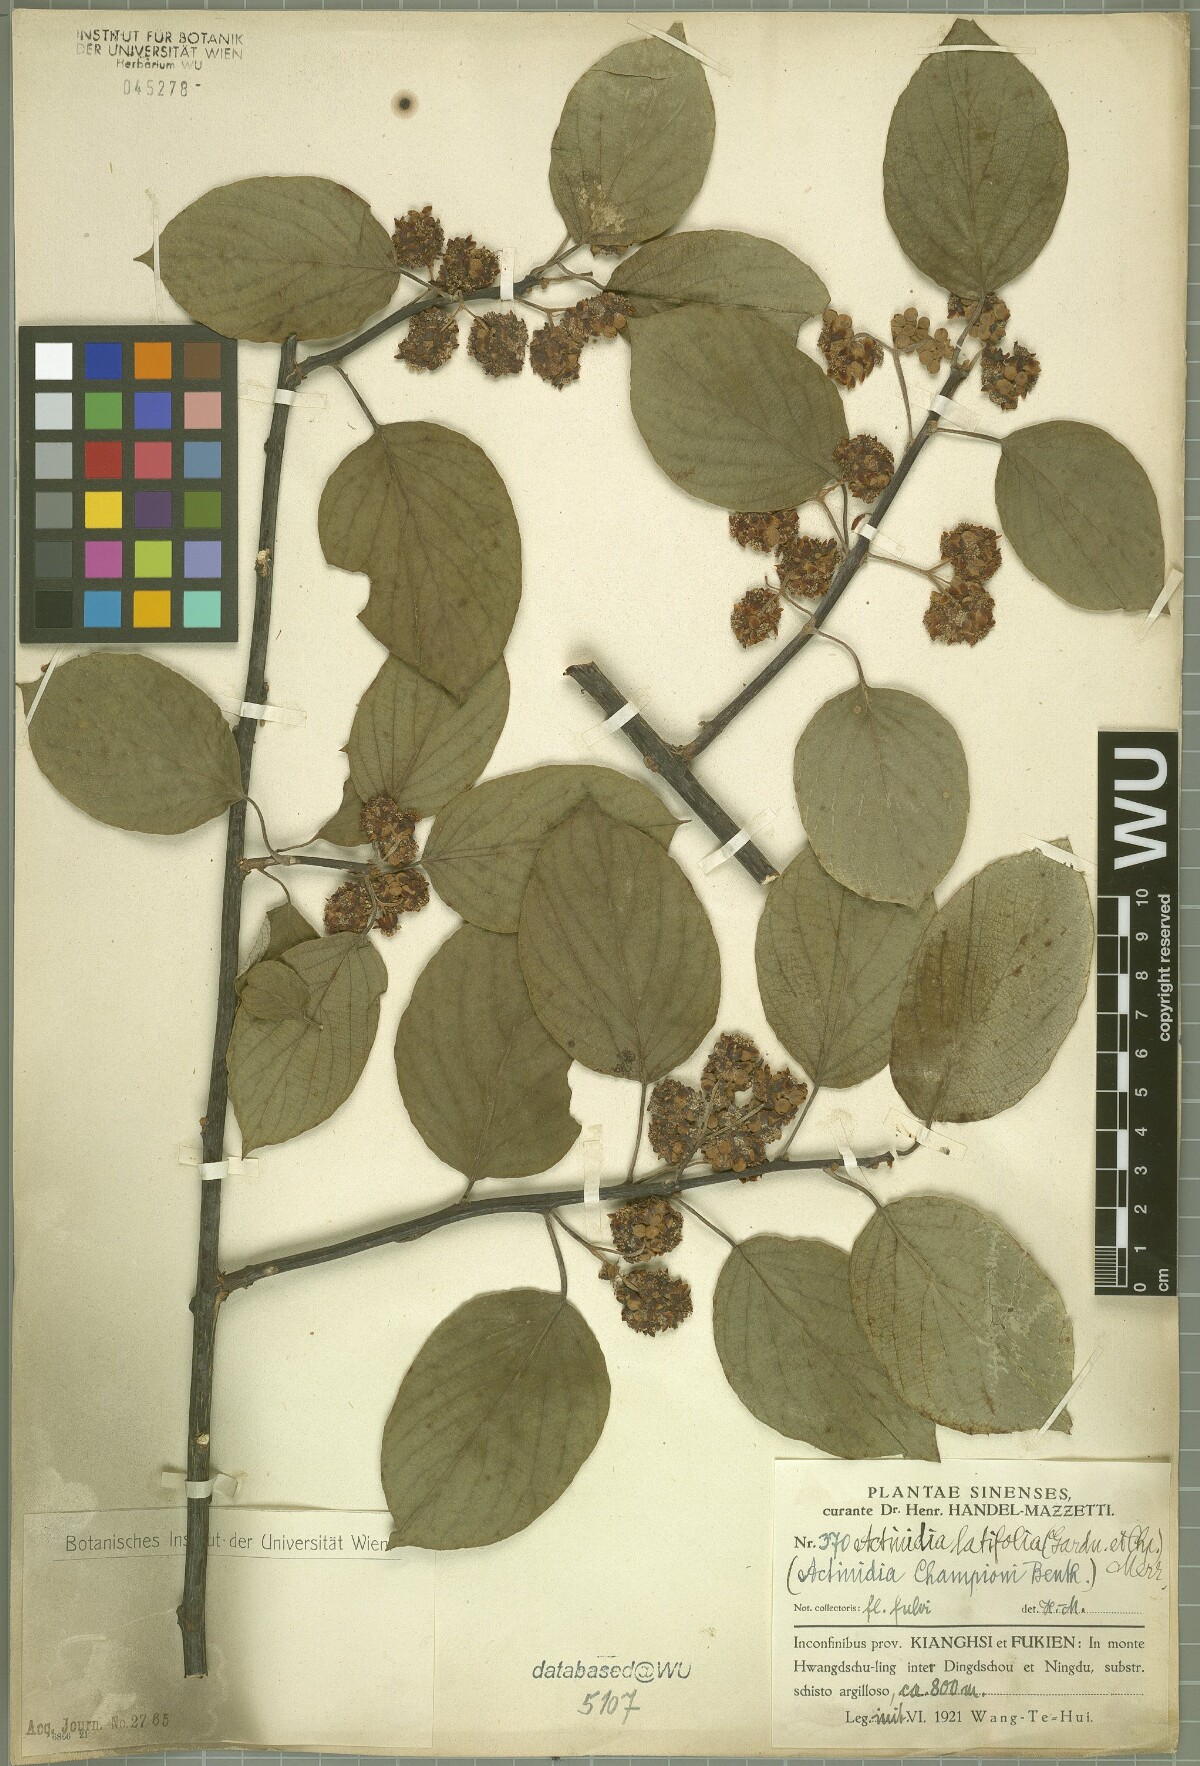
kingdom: Plantae
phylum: Tracheophyta
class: Magnoliopsida
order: Ericales
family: Actinidiaceae
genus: Actinidia
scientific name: Actinidia latifolia
